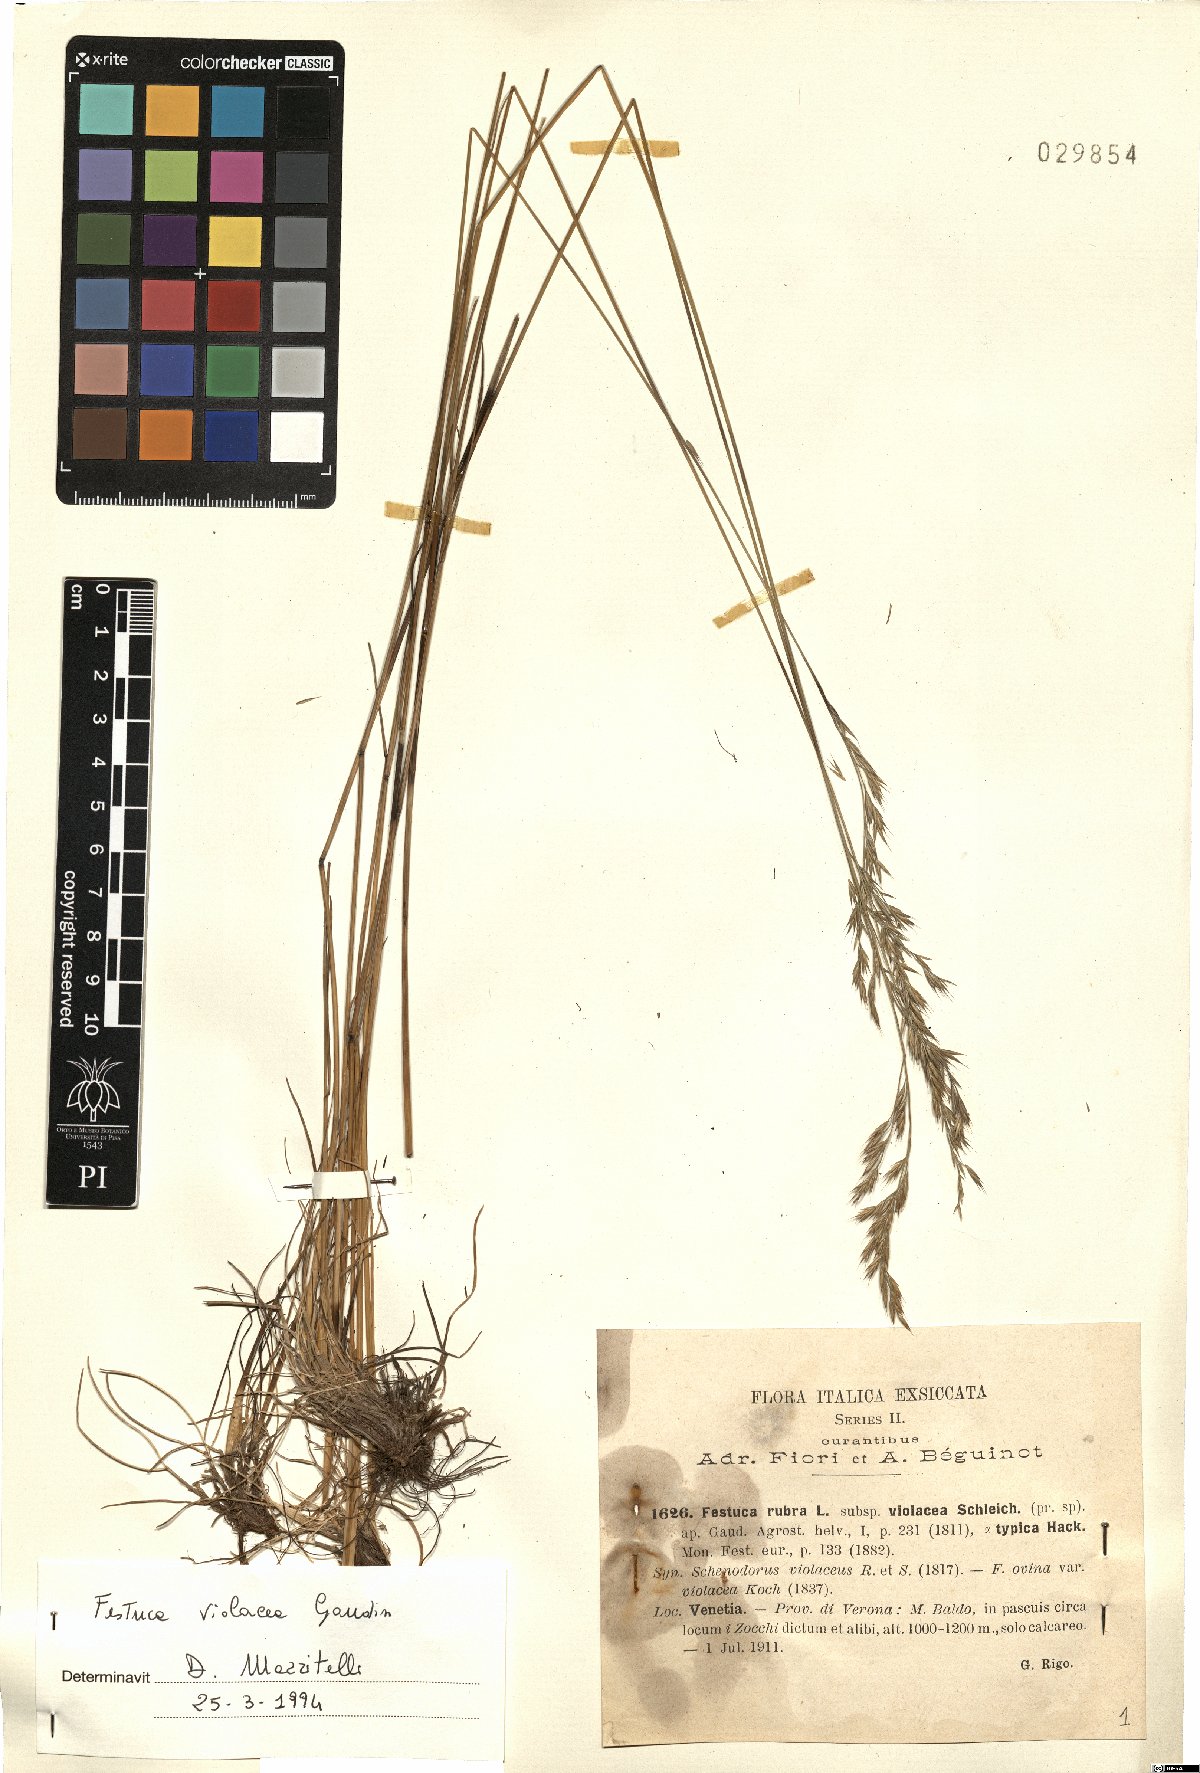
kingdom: Plantae
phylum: Tracheophyta
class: Liliopsida
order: Poales
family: Poaceae
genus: Festuca
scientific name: Festuca violacea
